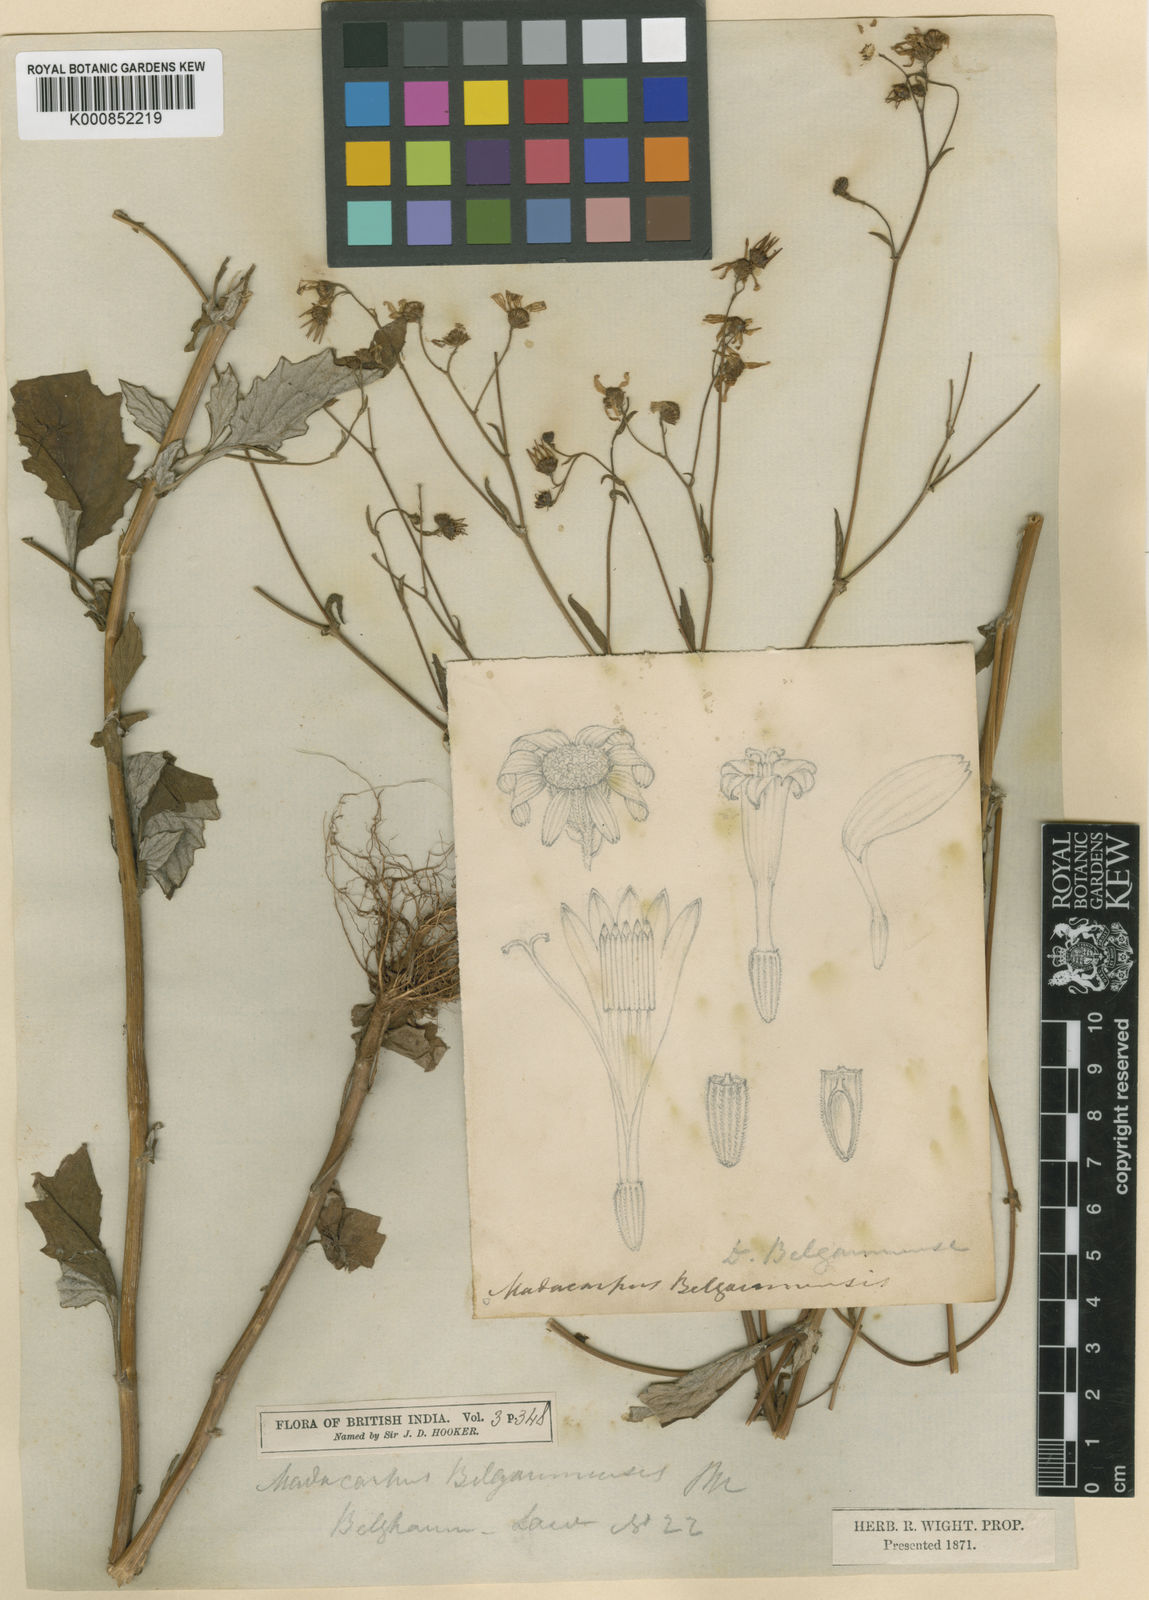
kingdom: Plantae
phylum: Tracheophyta
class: Magnoliopsida
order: Asterales
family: Asteraceae
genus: Senecio
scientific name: Senecio belgaumensis
